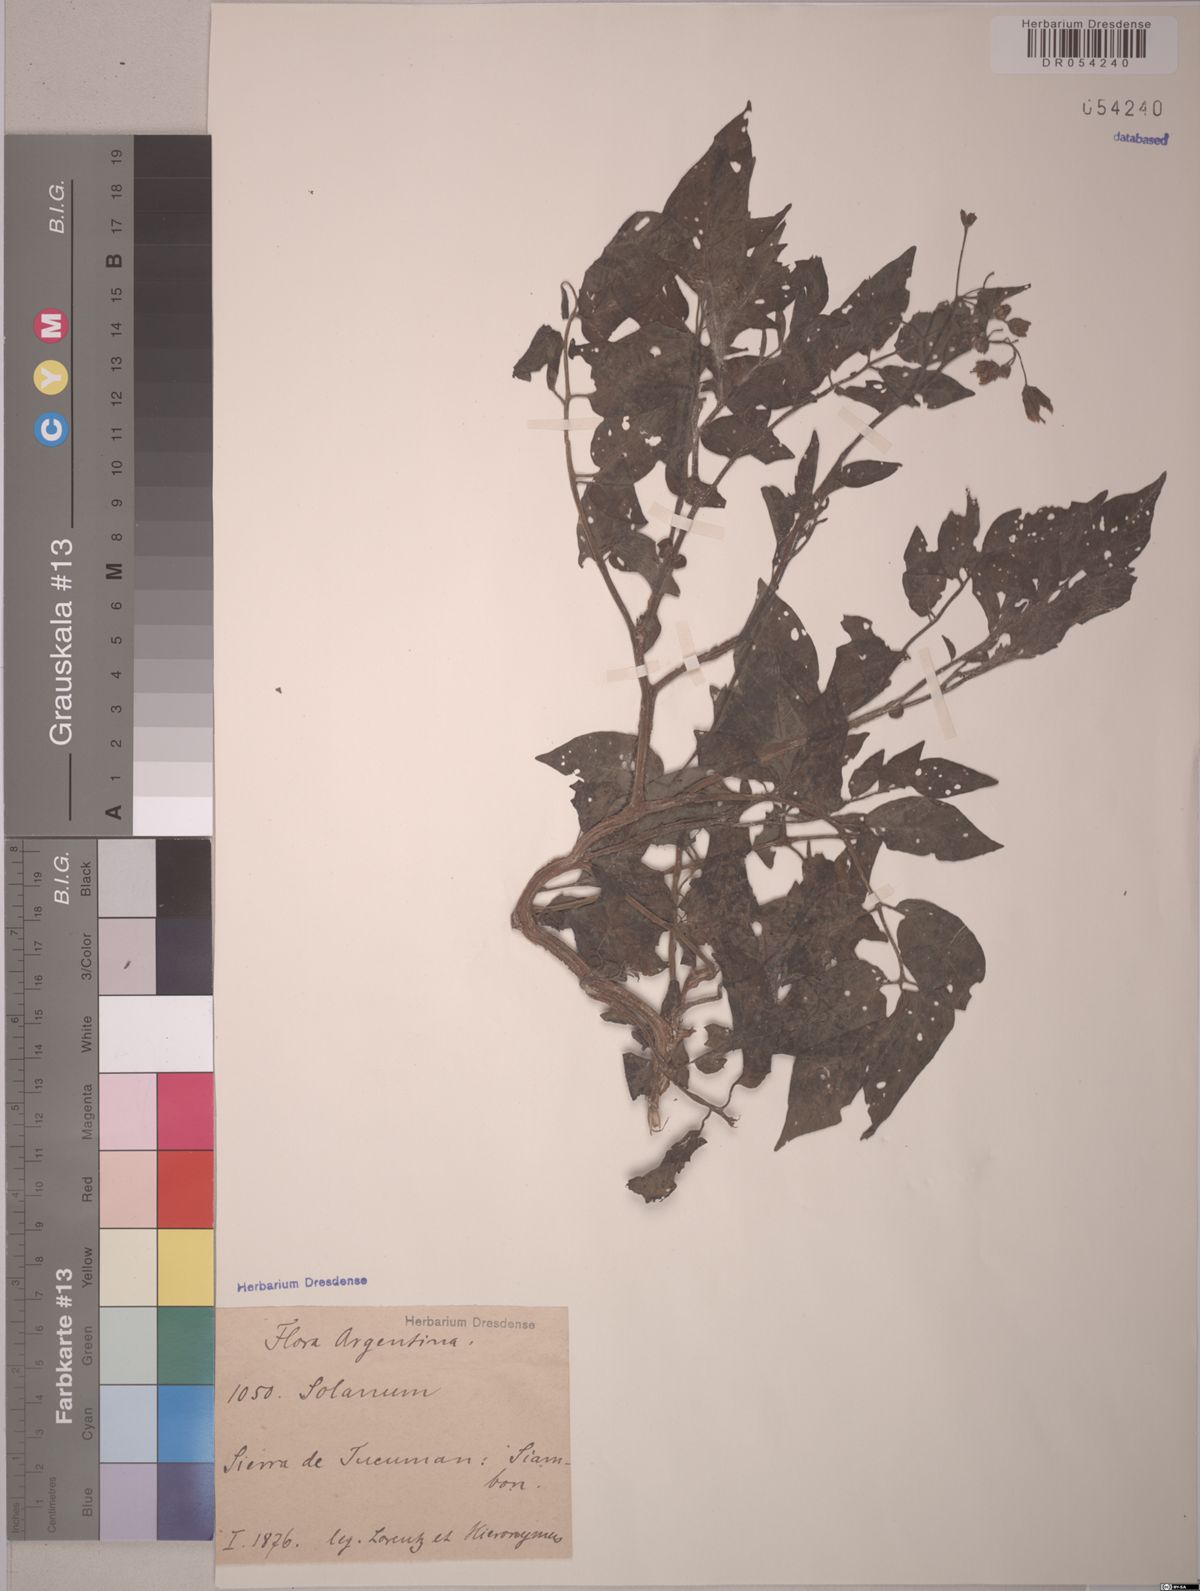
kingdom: Plantae
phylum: Tracheophyta
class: Magnoliopsida
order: Solanales
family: Solanaceae
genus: Solanum
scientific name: Solanum
